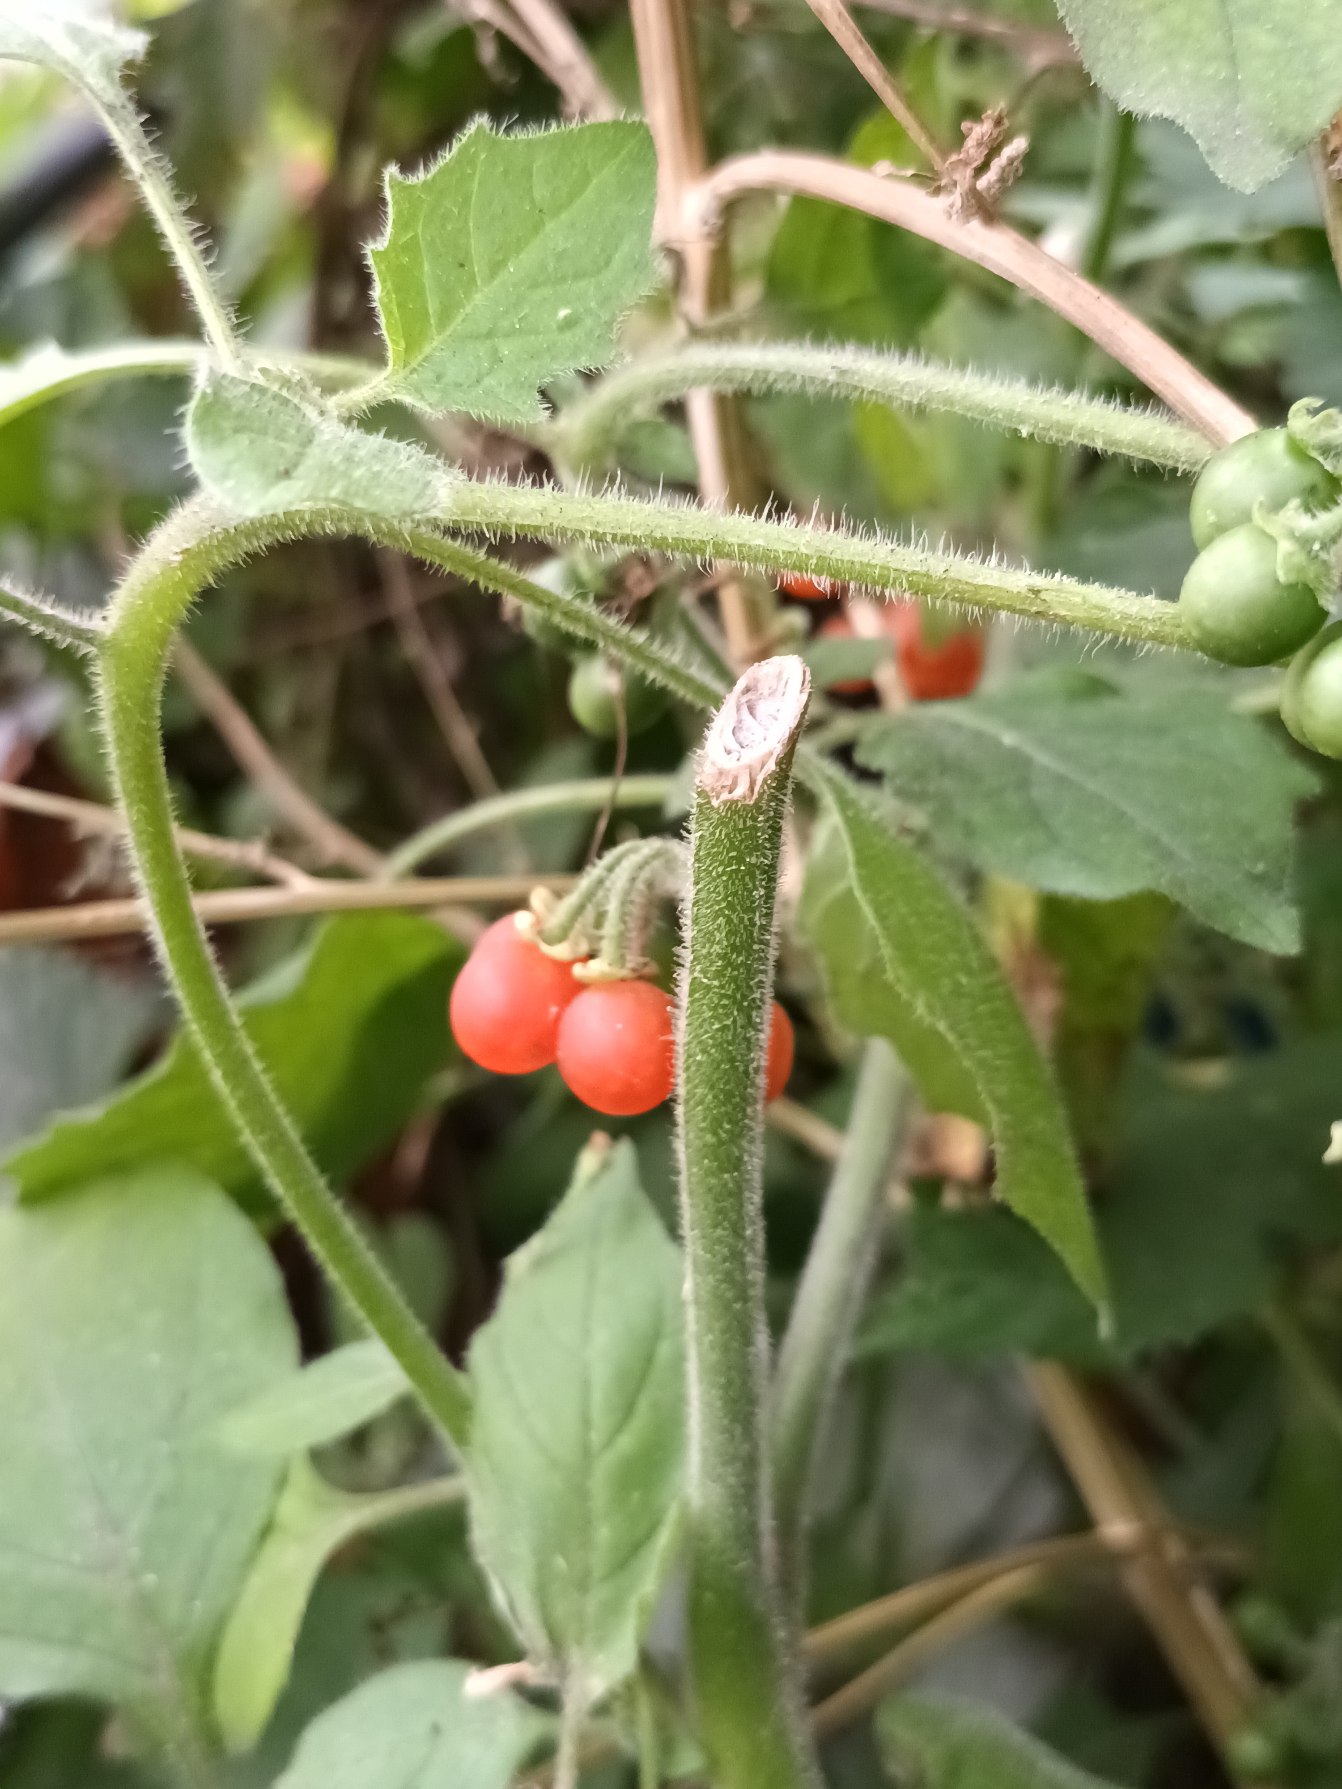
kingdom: Plantae
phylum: Tracheophyta
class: Magnoliopsida
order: Solanales
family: Solanaceae
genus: Solanum
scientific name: Solanum villosum
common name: Håret natskygge
